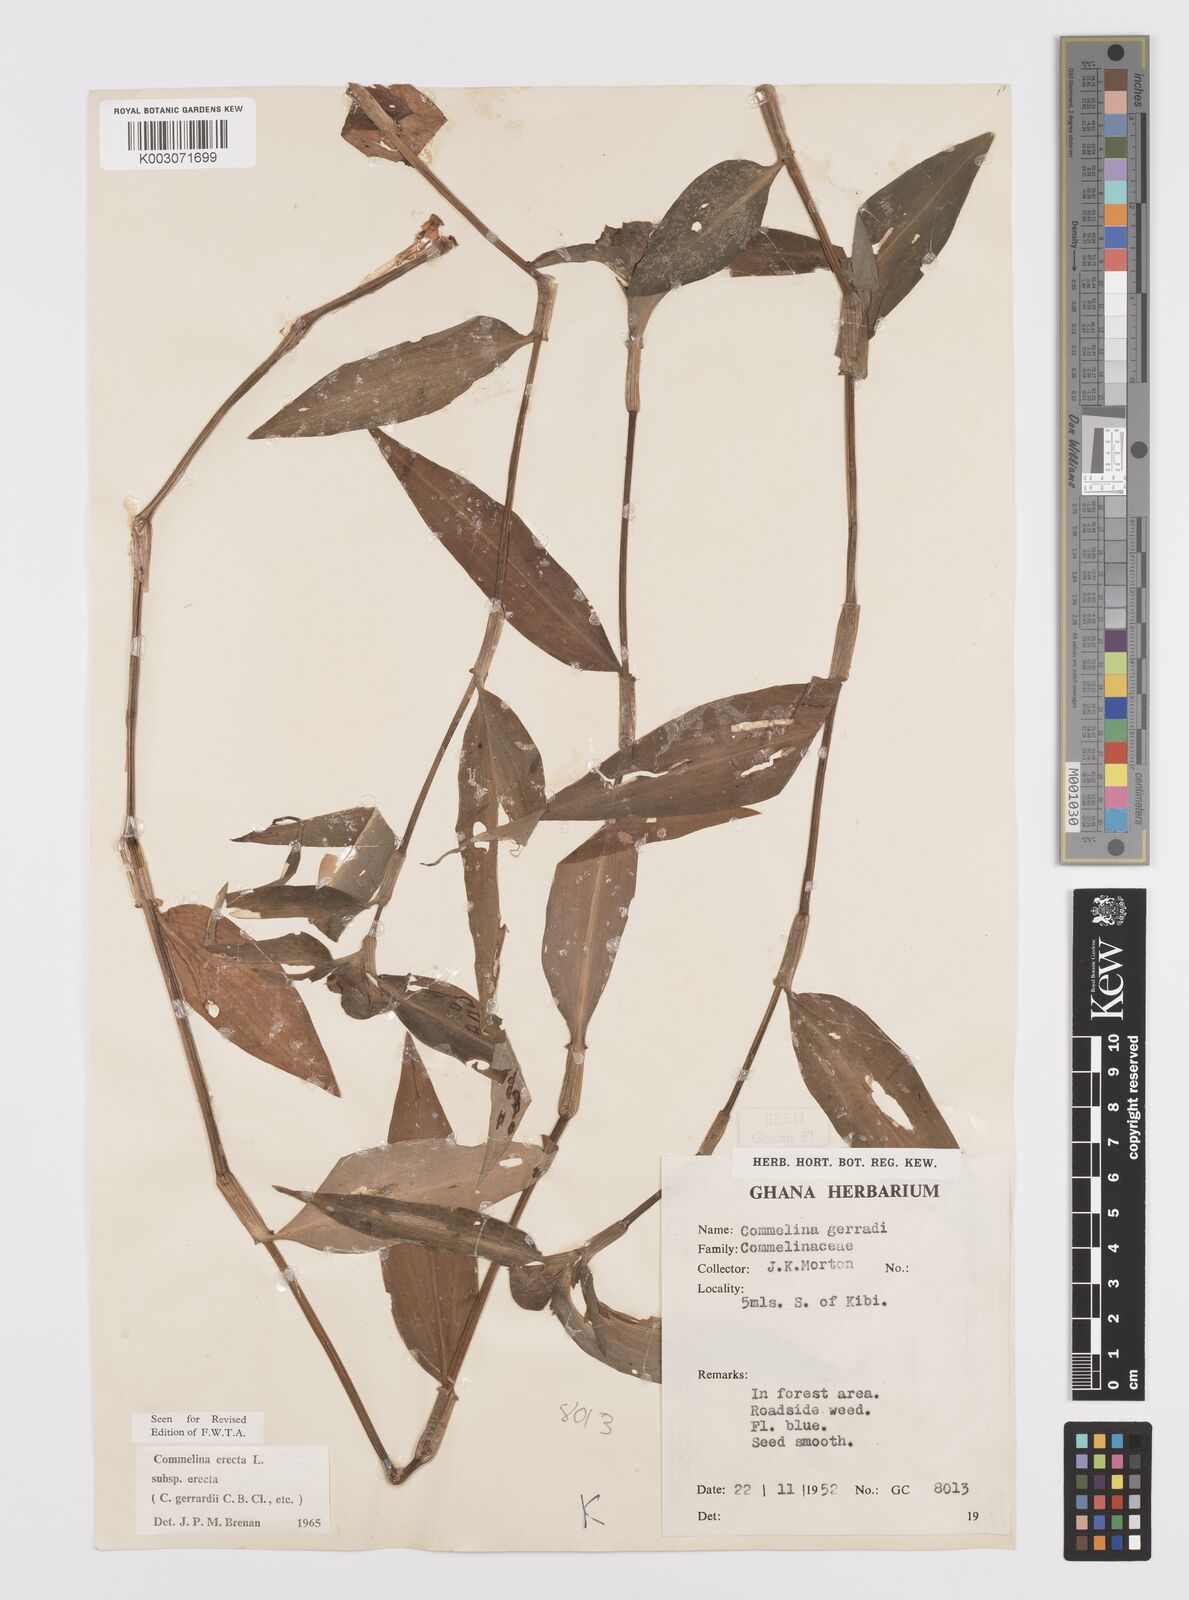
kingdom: Plantae
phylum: Tracheophyta
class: Liliopsida
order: Commelinales
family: Commelinaceae
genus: Commelina
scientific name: Commelina erecta
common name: Blousel blommetjie
